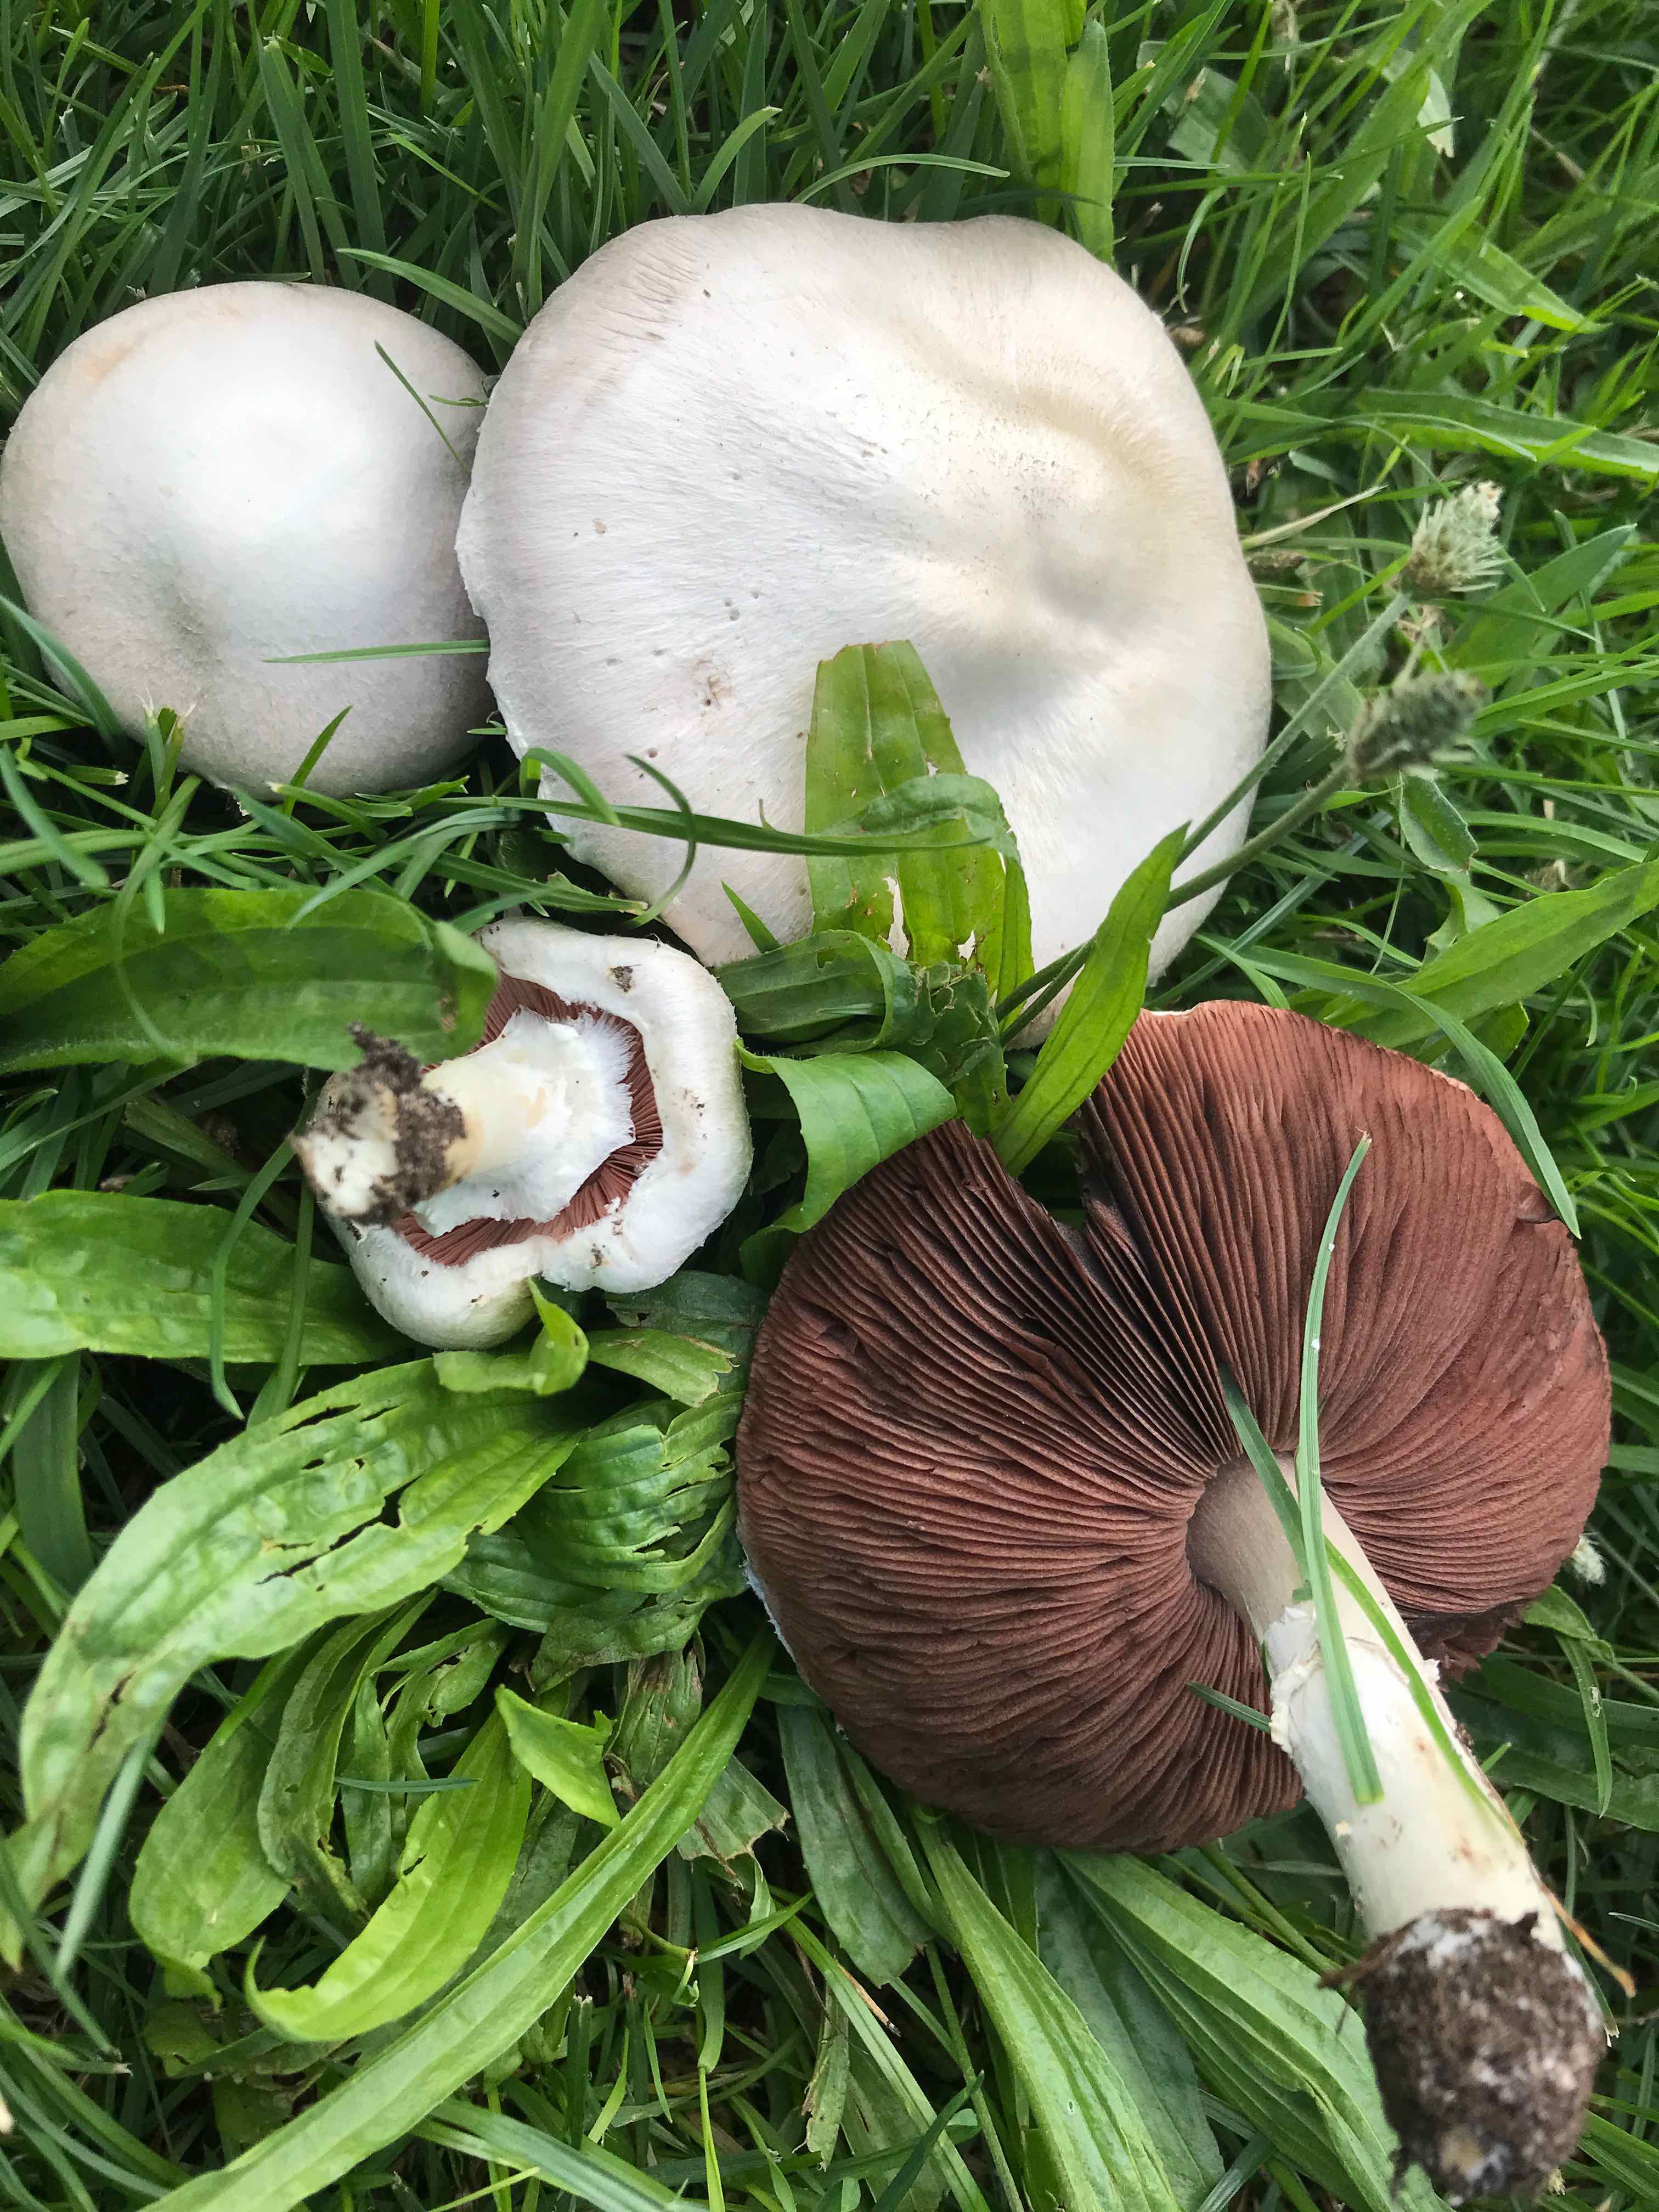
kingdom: Fungi
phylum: Basidiomycota
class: Agaricomycetes
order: Agaricales
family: Agaricaceae
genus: Agaricus
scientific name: Agaricus campestris
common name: mark-champignon
